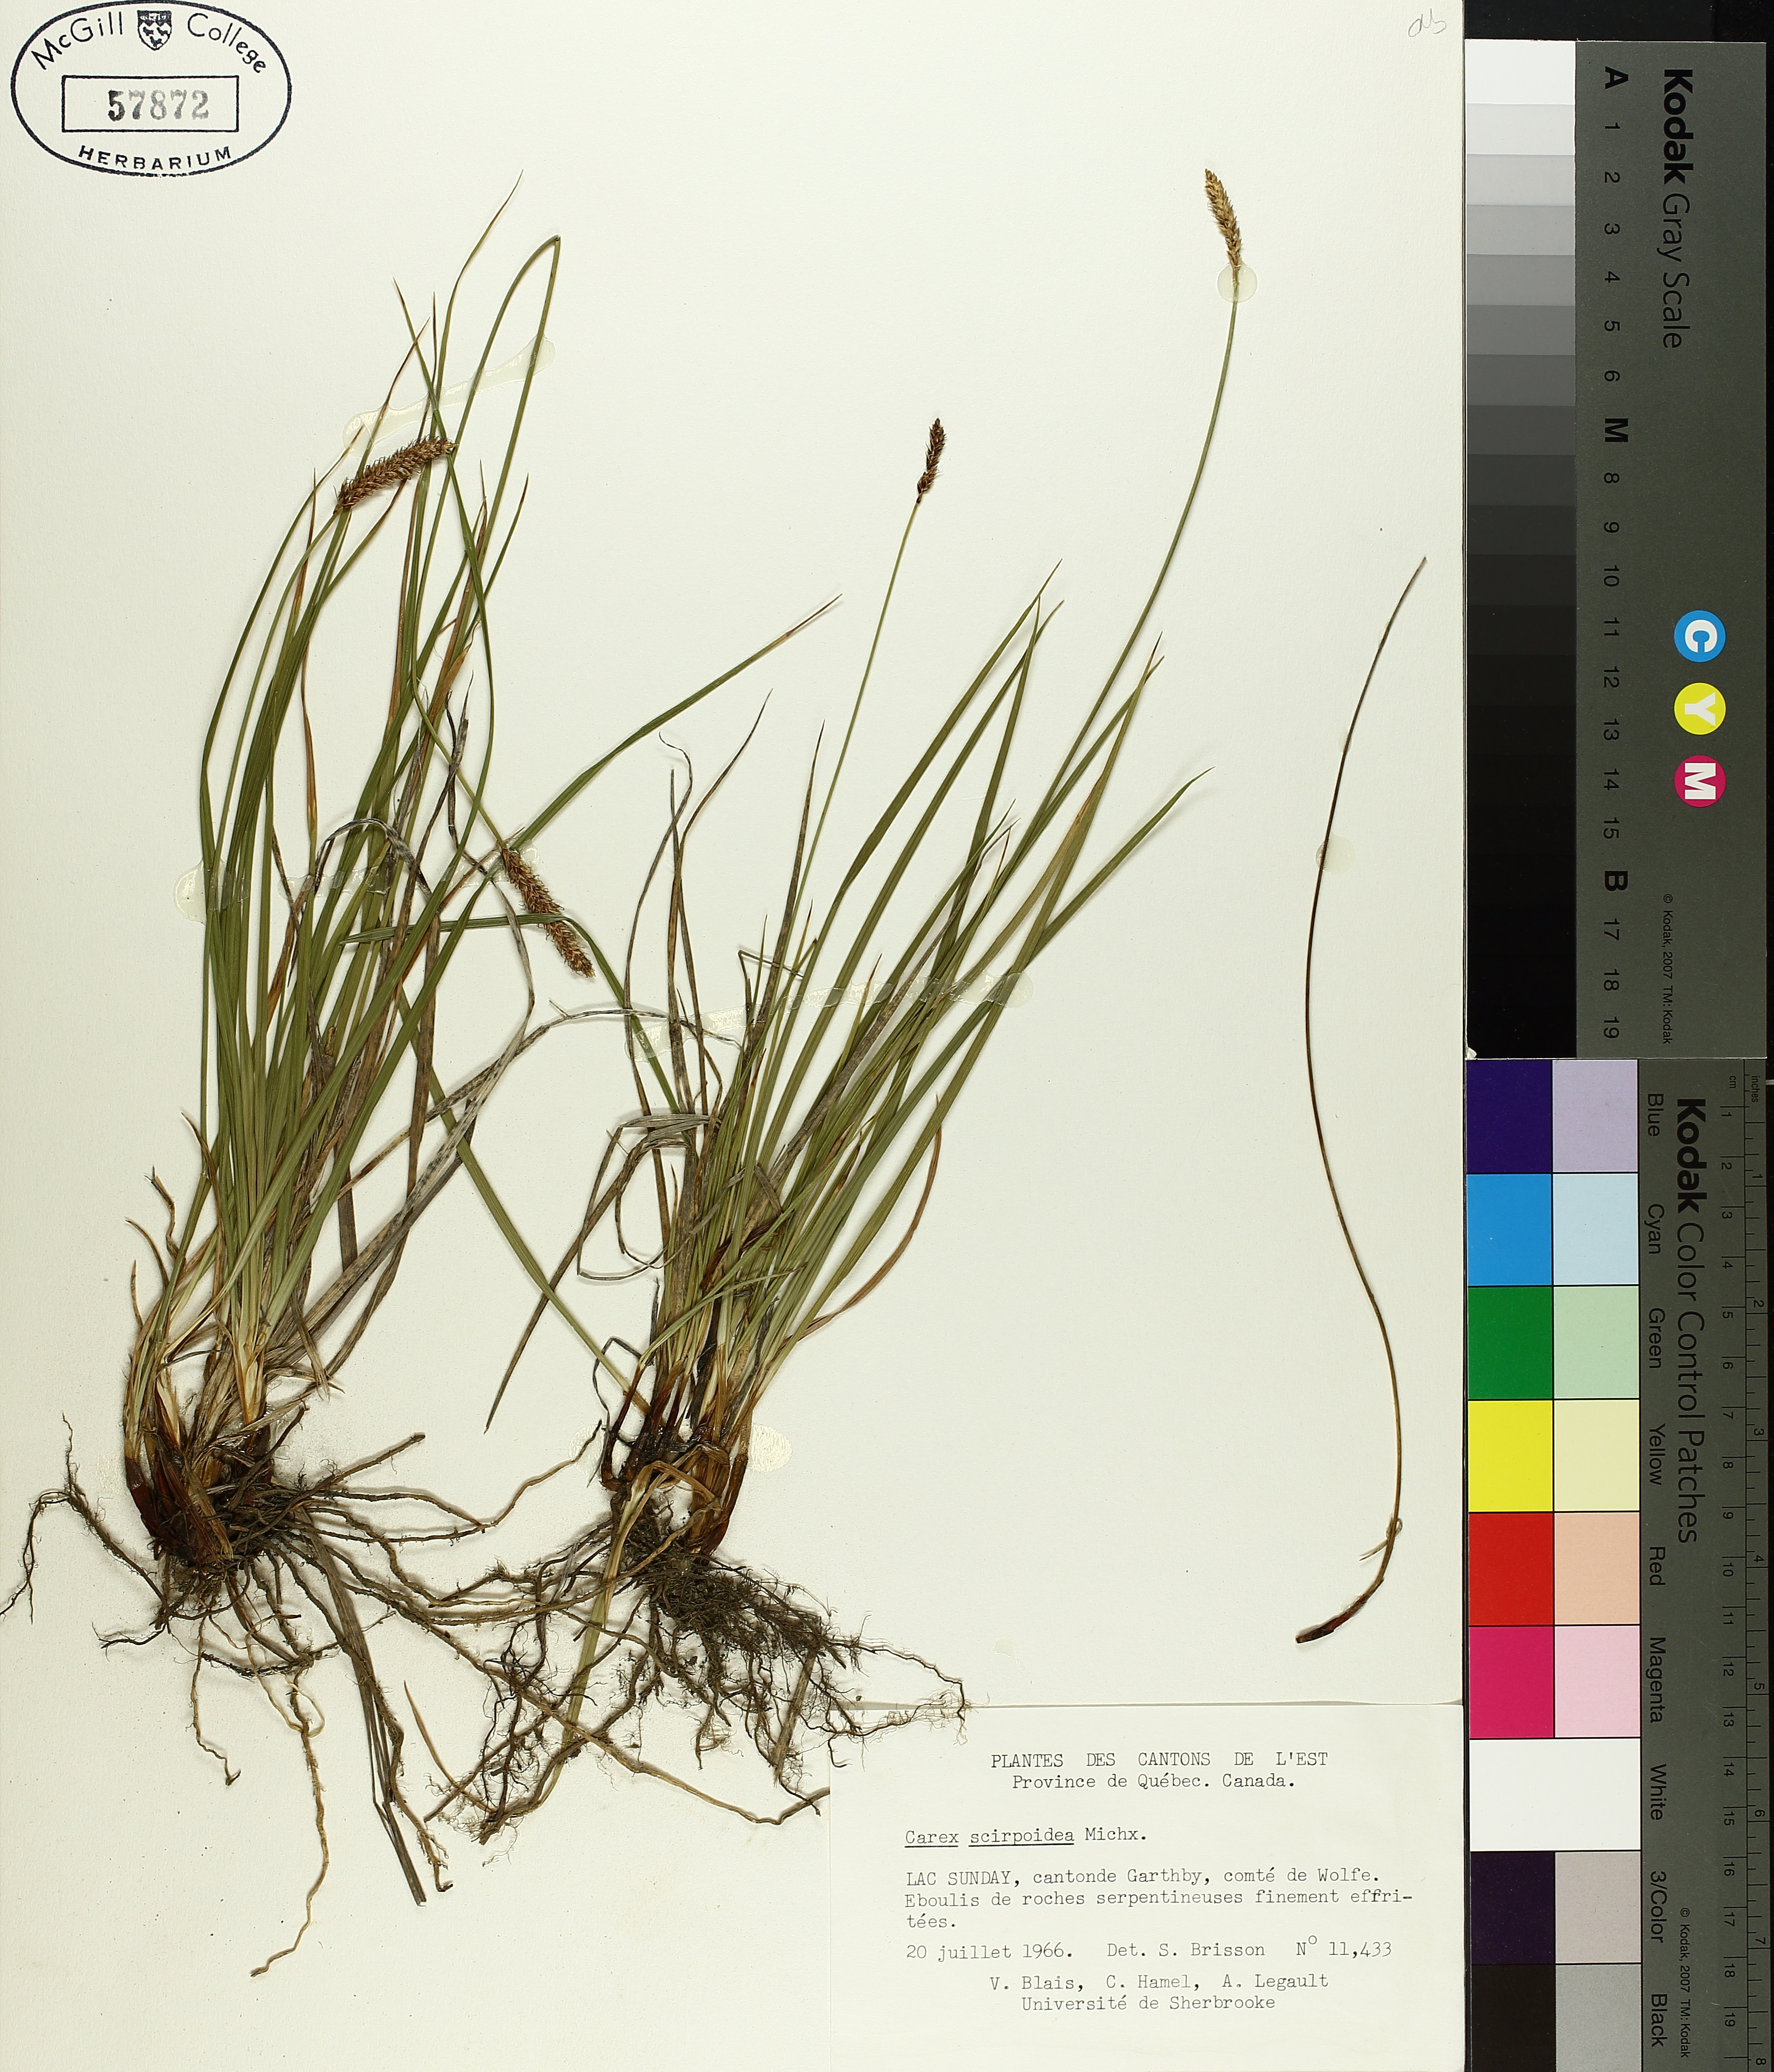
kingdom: Plantae
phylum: Tracheophyta
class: Liliopsida
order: Poales
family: Cyperaceae
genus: Carex
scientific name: Carex scirpoidea
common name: Canada single-spike sedge
